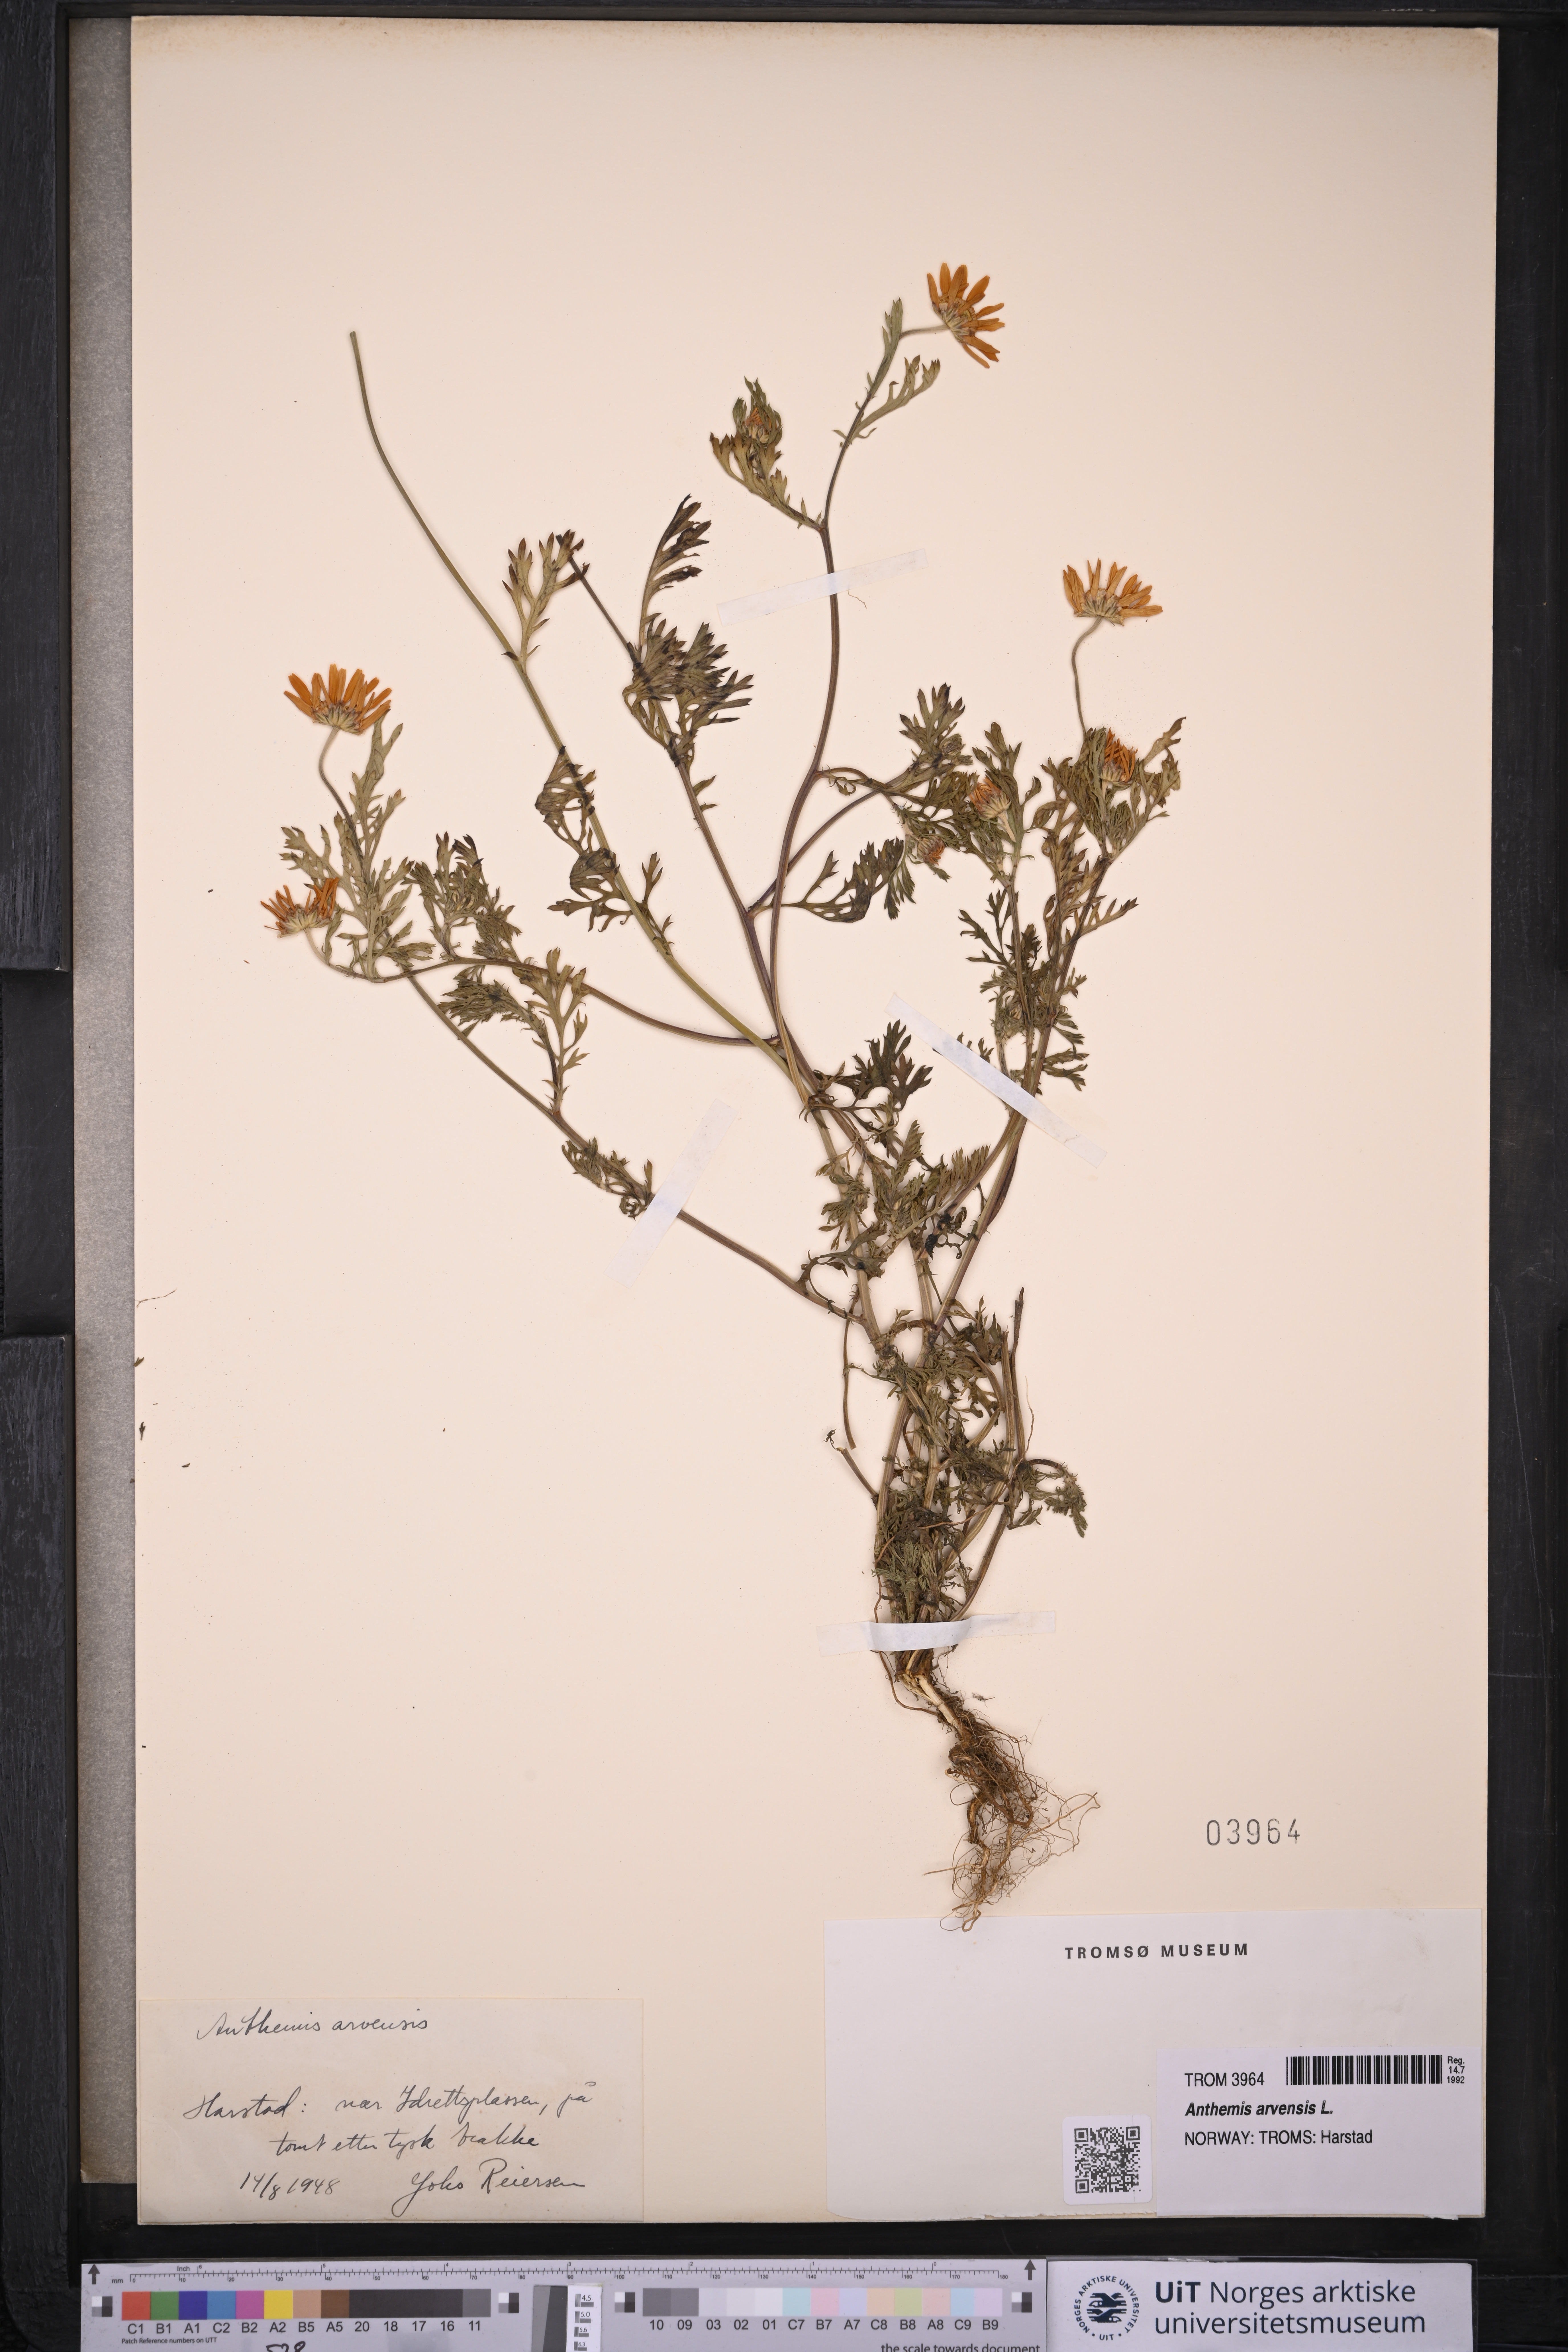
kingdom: Plantae
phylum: Tracheophyta
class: Magnoliopsida
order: Asterales
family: Asteraceae
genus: Anthemis
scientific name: Anthemis arvensis
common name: Corn chamomile
